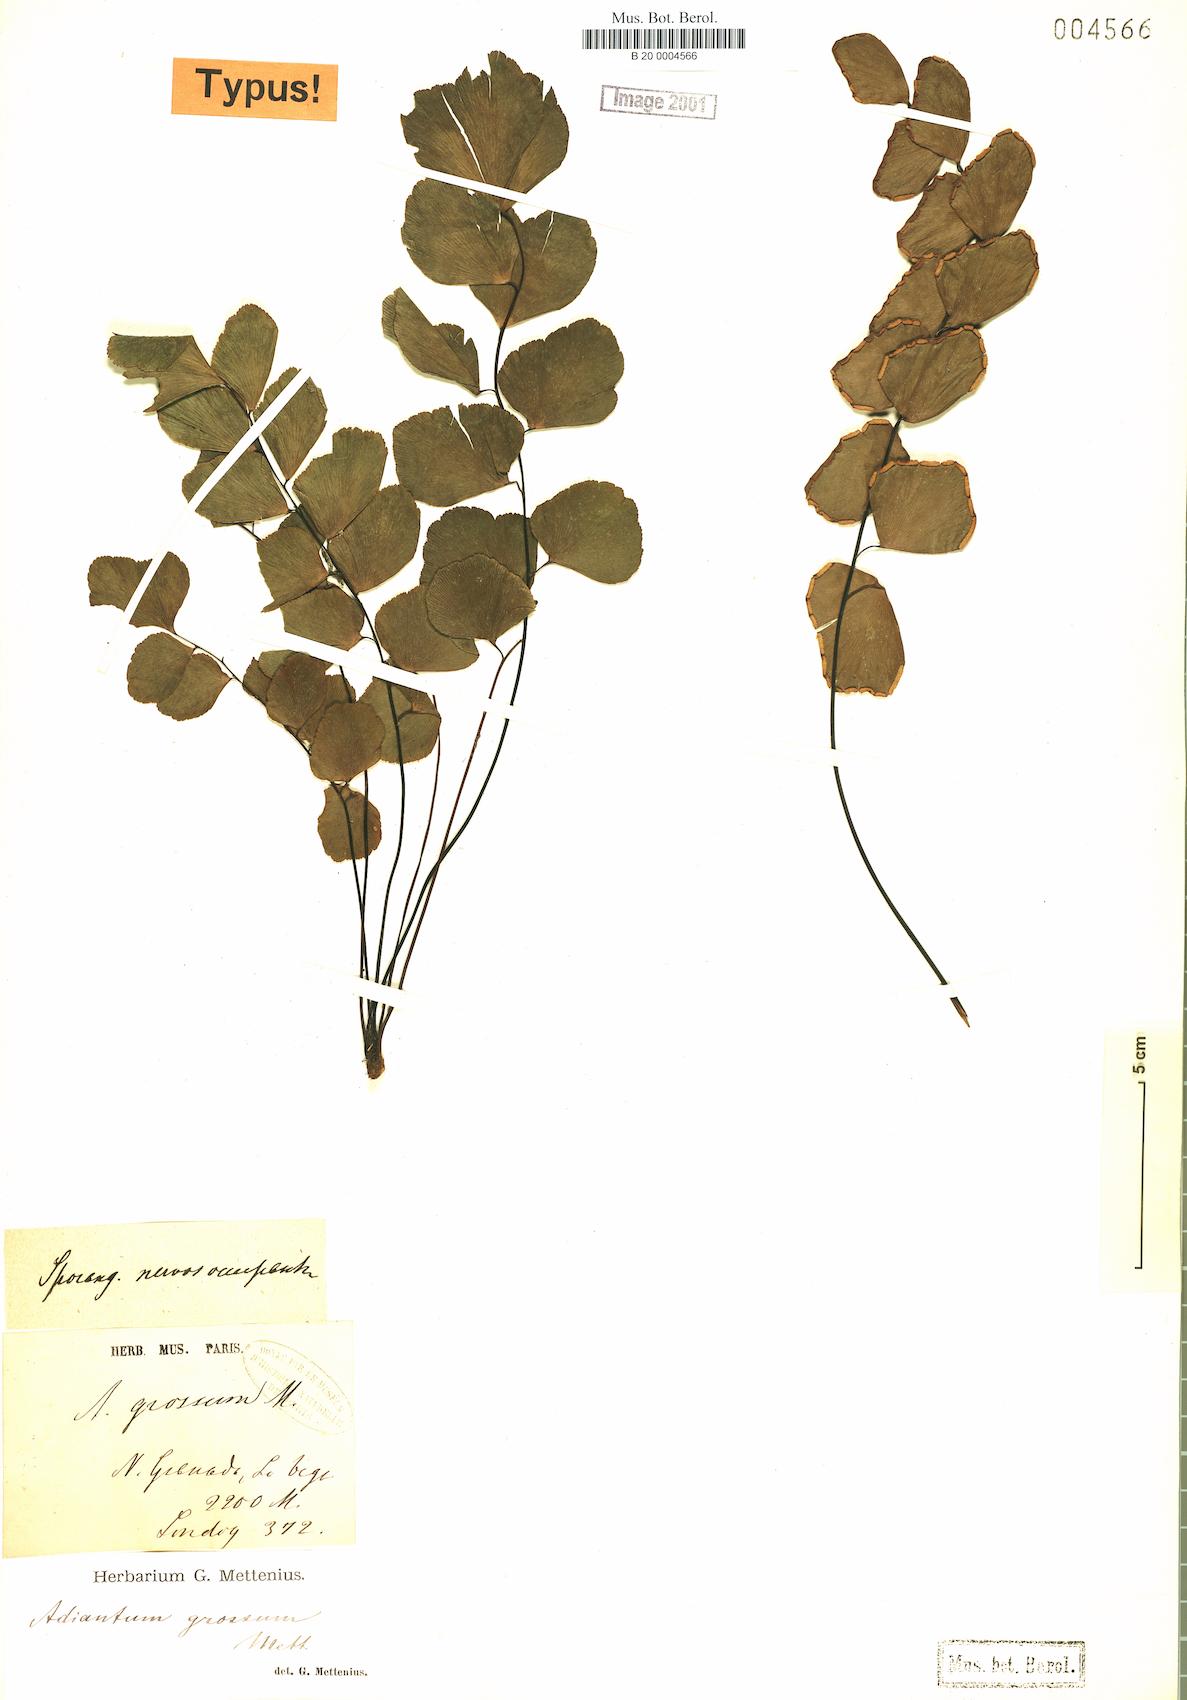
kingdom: Plantae
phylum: Tracheophyta
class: Polypodiopsida
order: Polypodiales
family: Pteridaceae
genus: Adiantum
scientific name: Adiantum grossum
